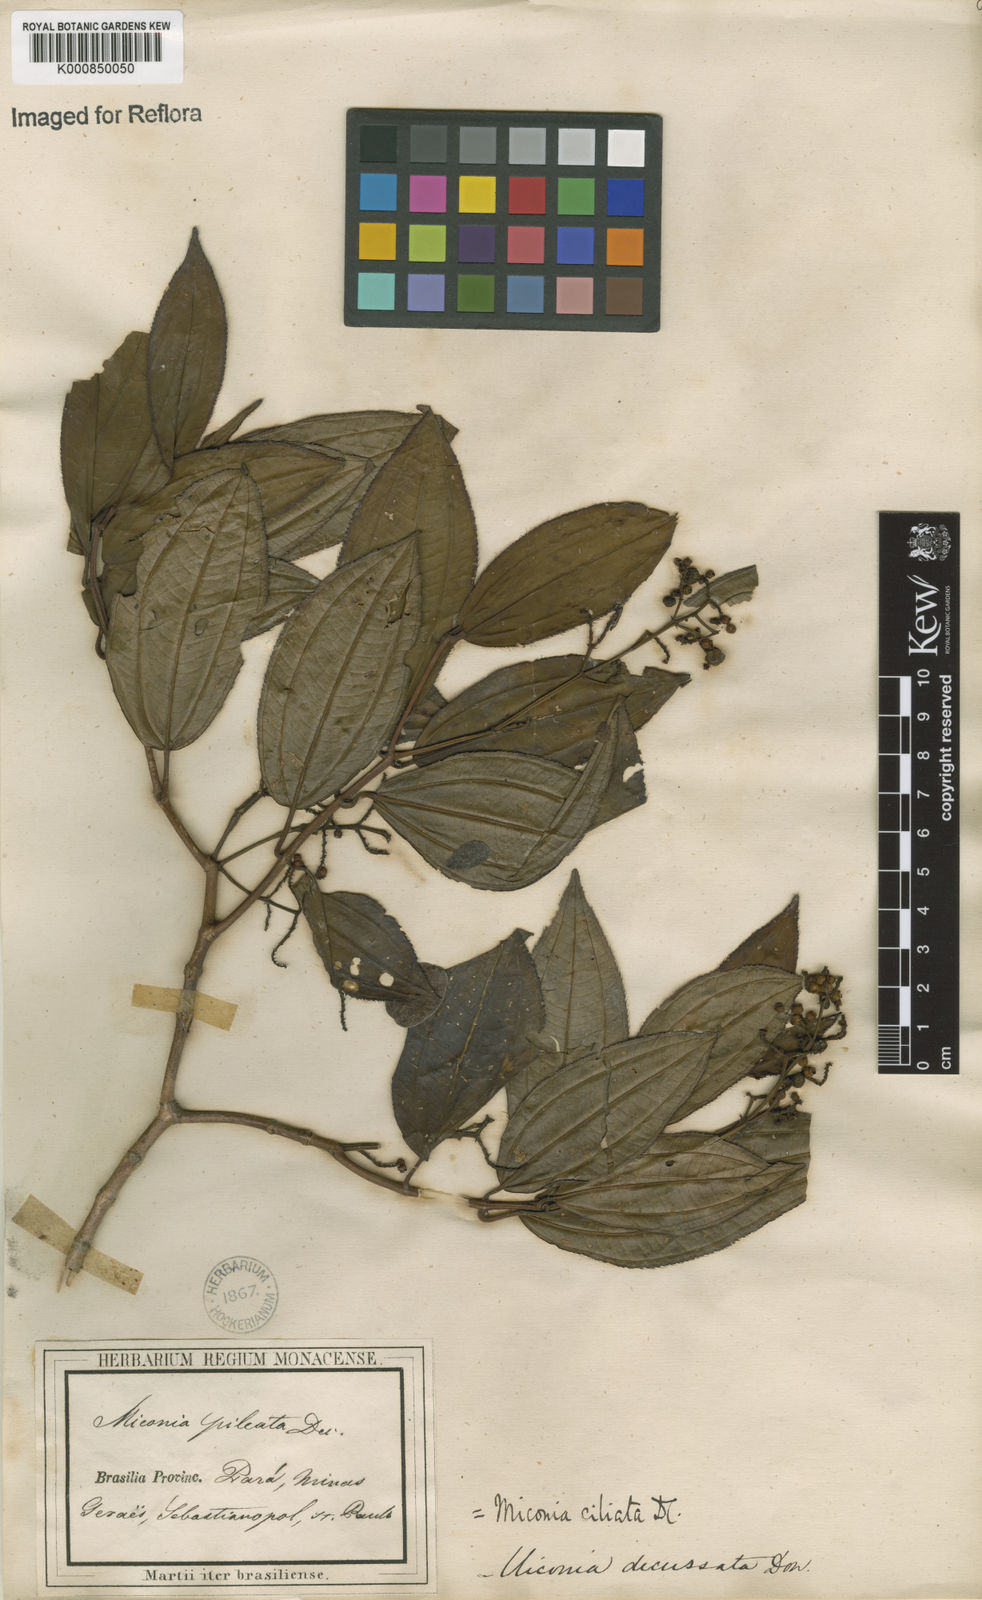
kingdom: Plantae
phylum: Tracheophyta
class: Magnoliopsida
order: Myrtales
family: Melastomataceae
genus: Miconia
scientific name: Miconia ciliata
